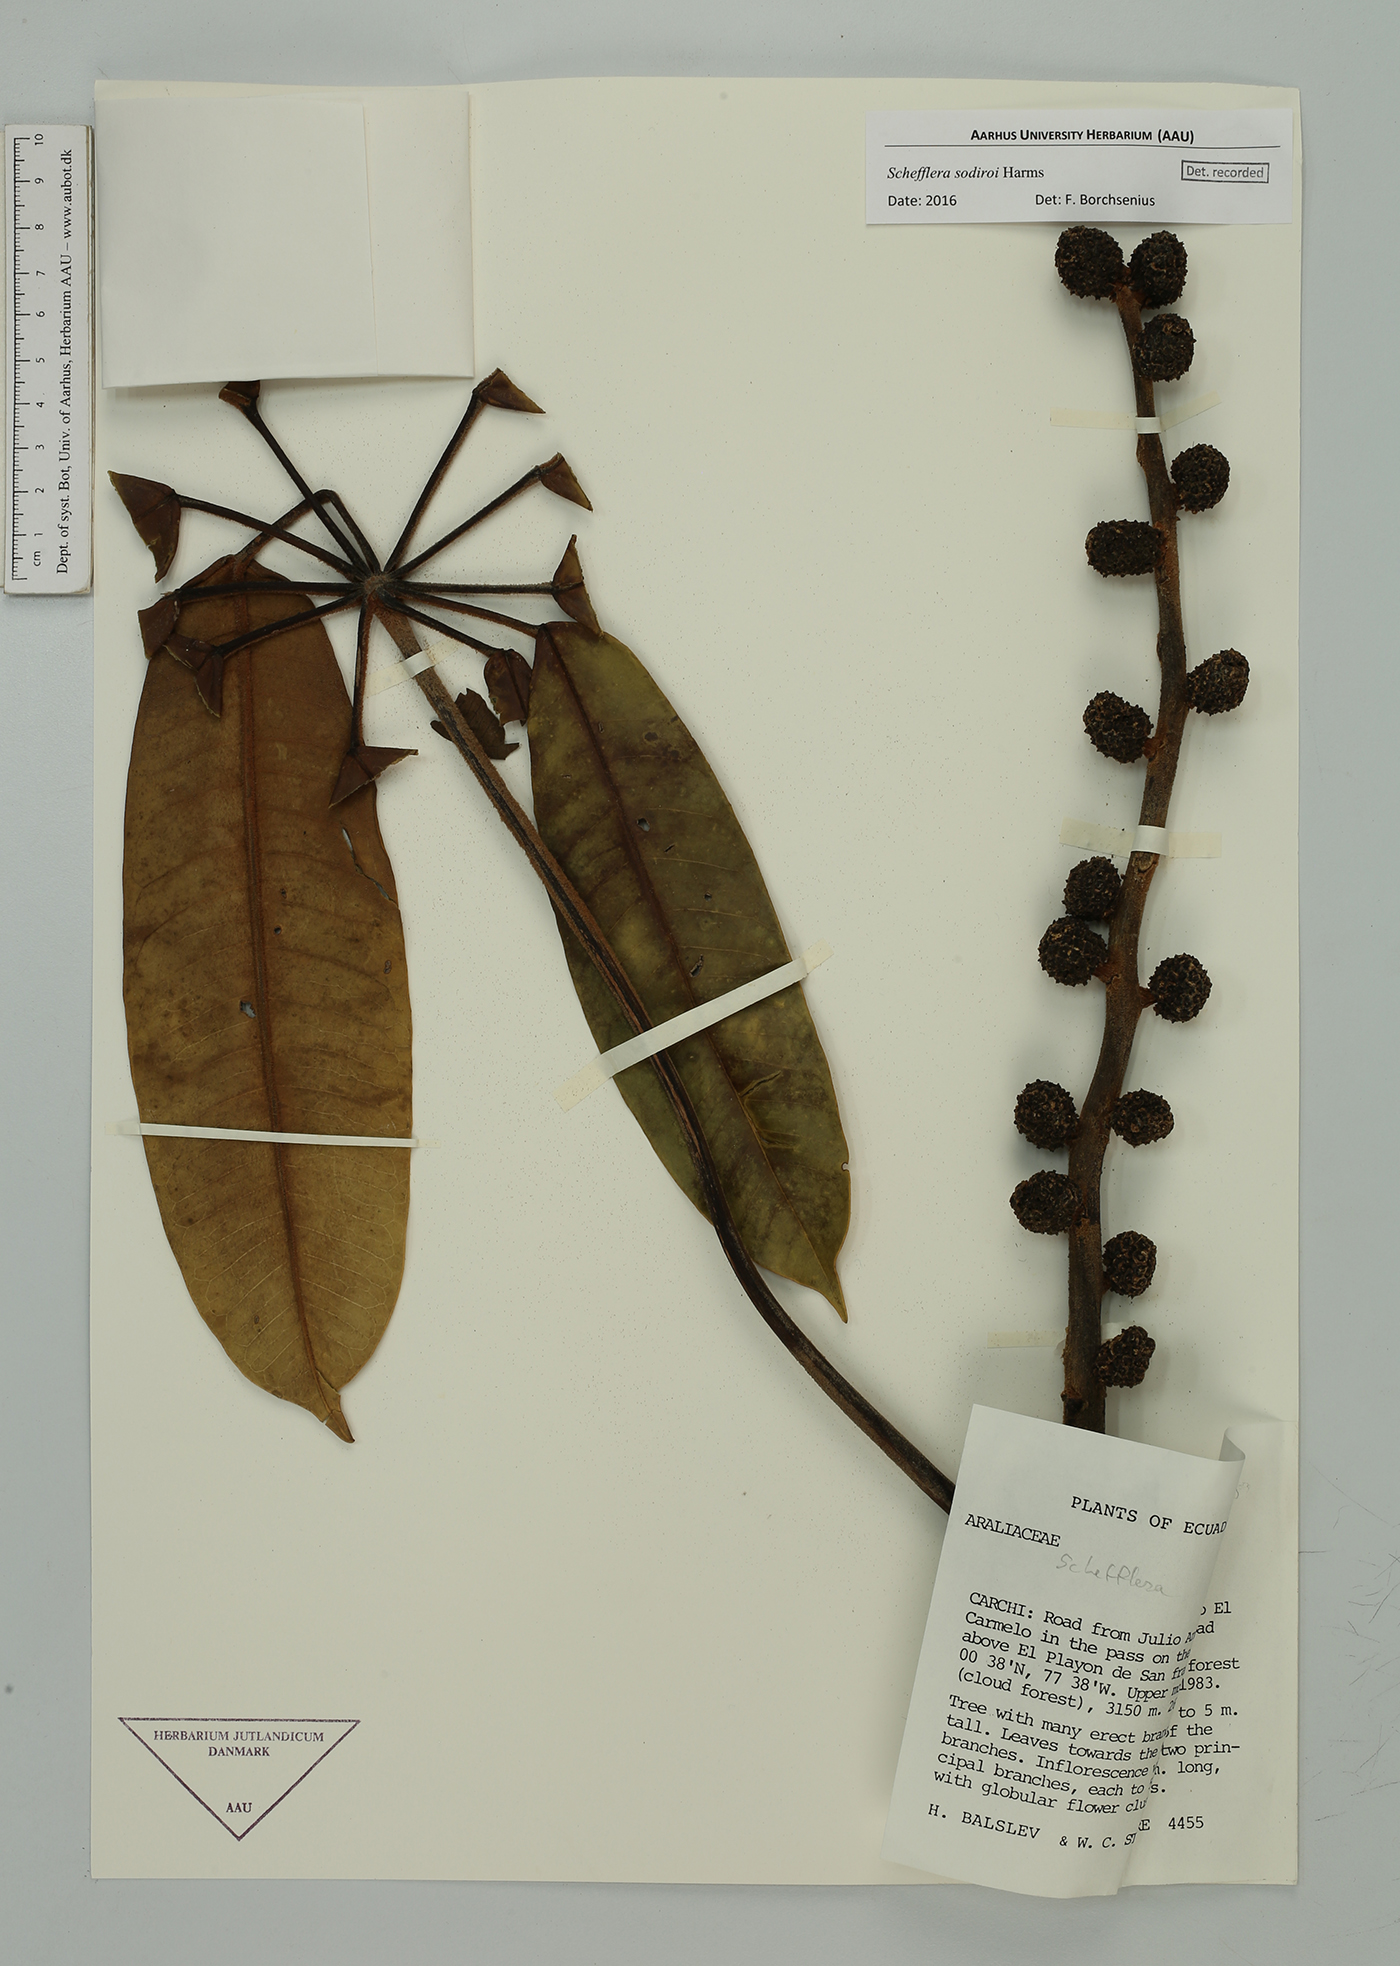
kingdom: Plantae
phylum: Tracheophyta
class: Magnoliopsida
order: Apiales
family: Araliaceae
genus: Sciodaphyllum
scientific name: Sciodaphyllum basiorevolutum
